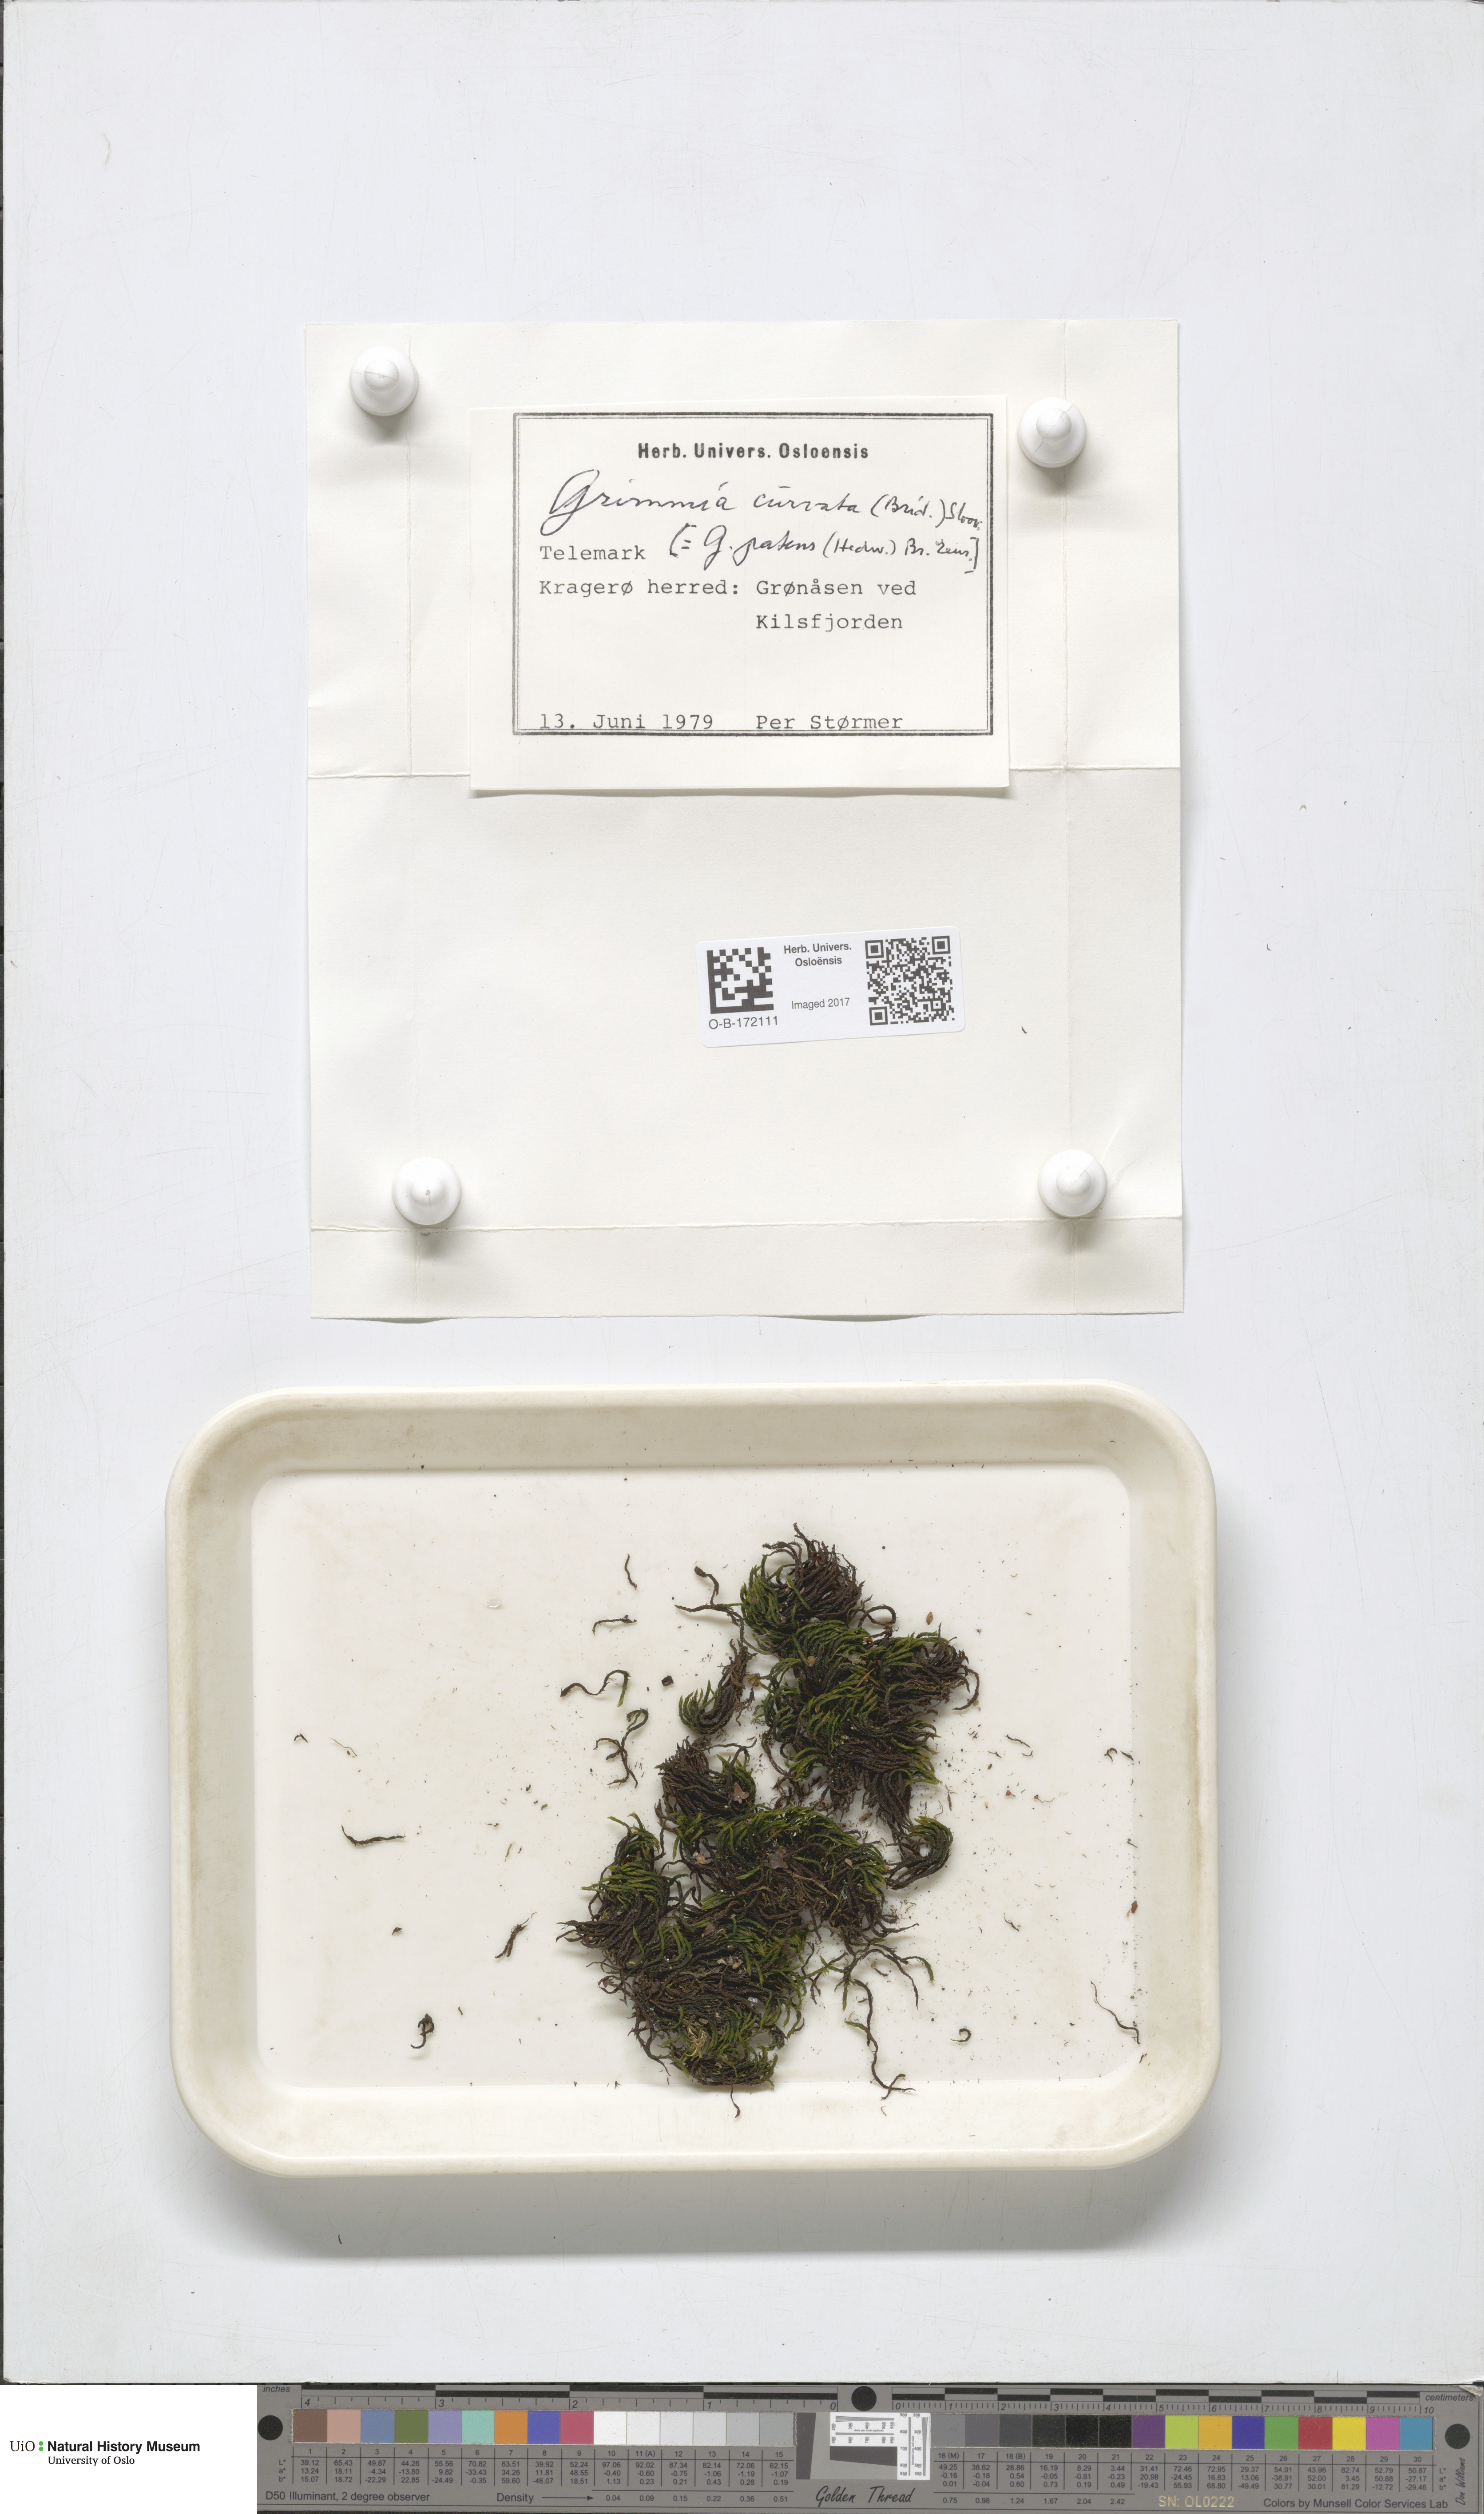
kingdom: Plantae
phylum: Bryophyta
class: Bryopsida
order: Grimmiales
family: Grimmiaceae
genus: Grimmia
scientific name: Grimmia ramondii
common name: Spreading-leaved grimmia
